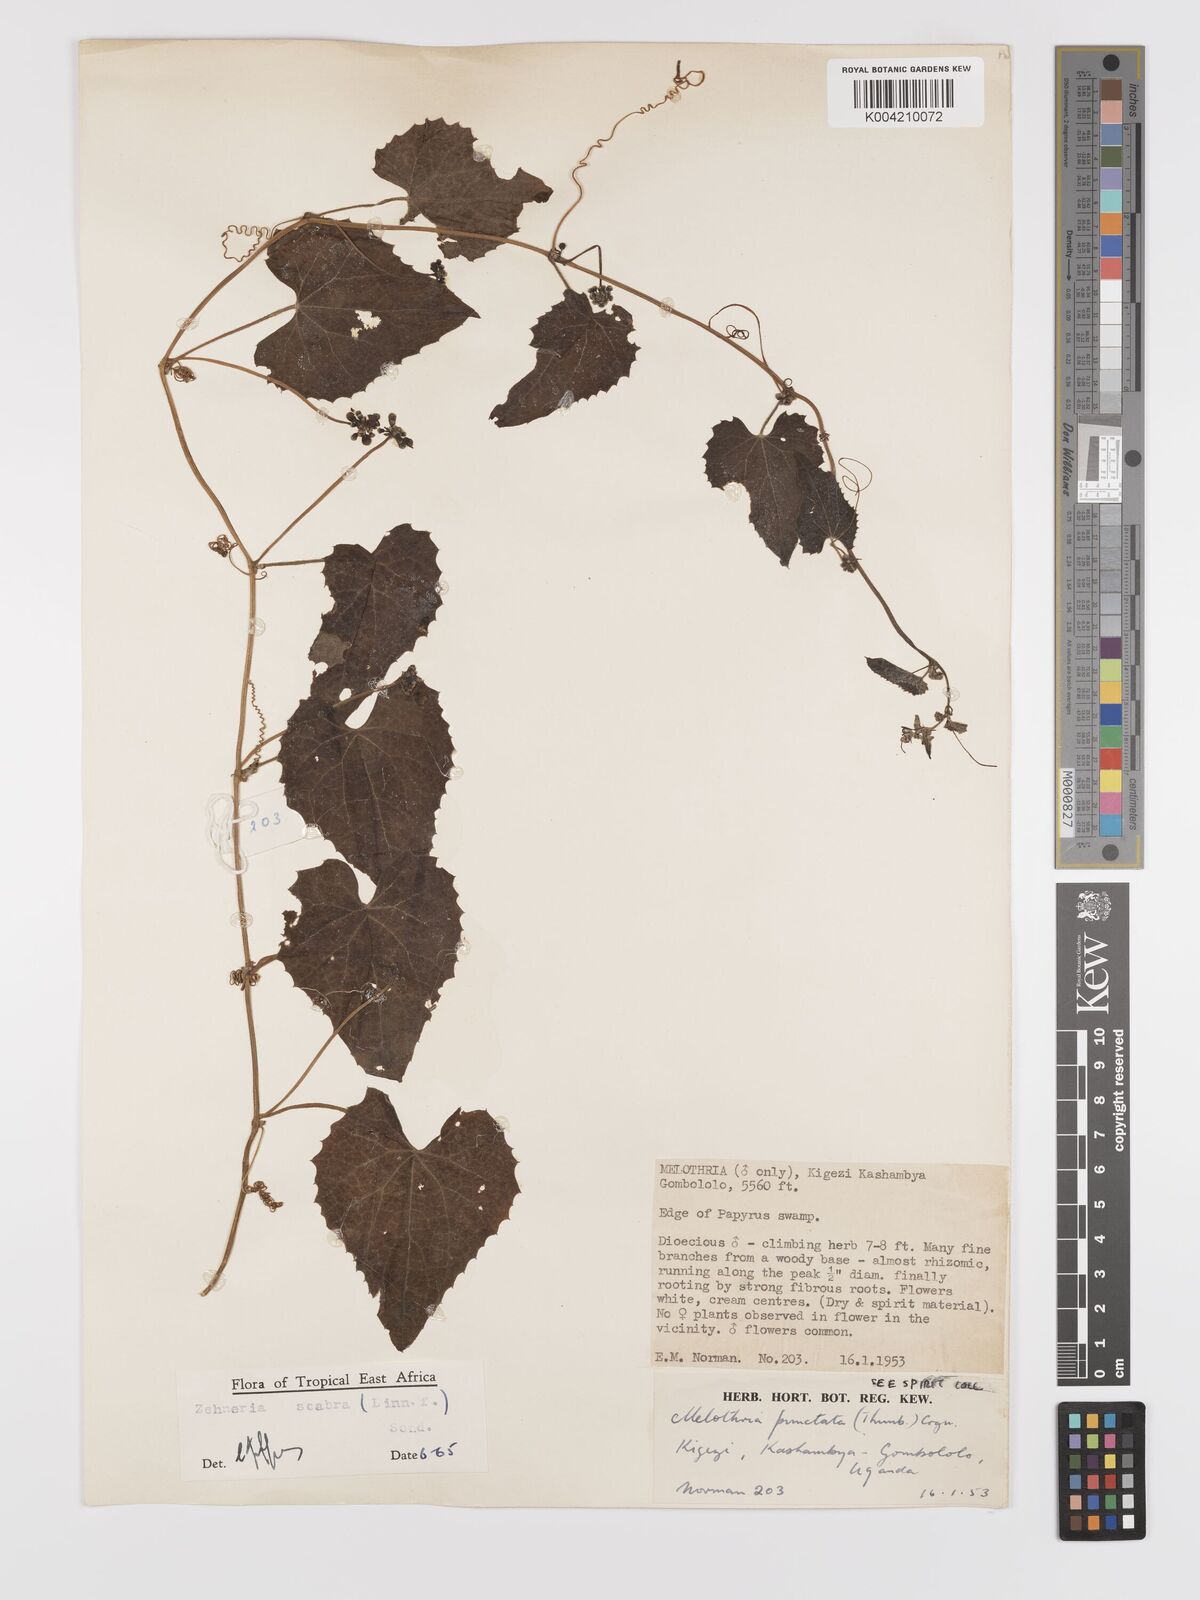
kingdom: Plantae
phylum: Tracheophyta
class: Magnoliopsida
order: Cucurbitales
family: Cucurbitaceae
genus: Zehneria
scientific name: Zehneria scabra
